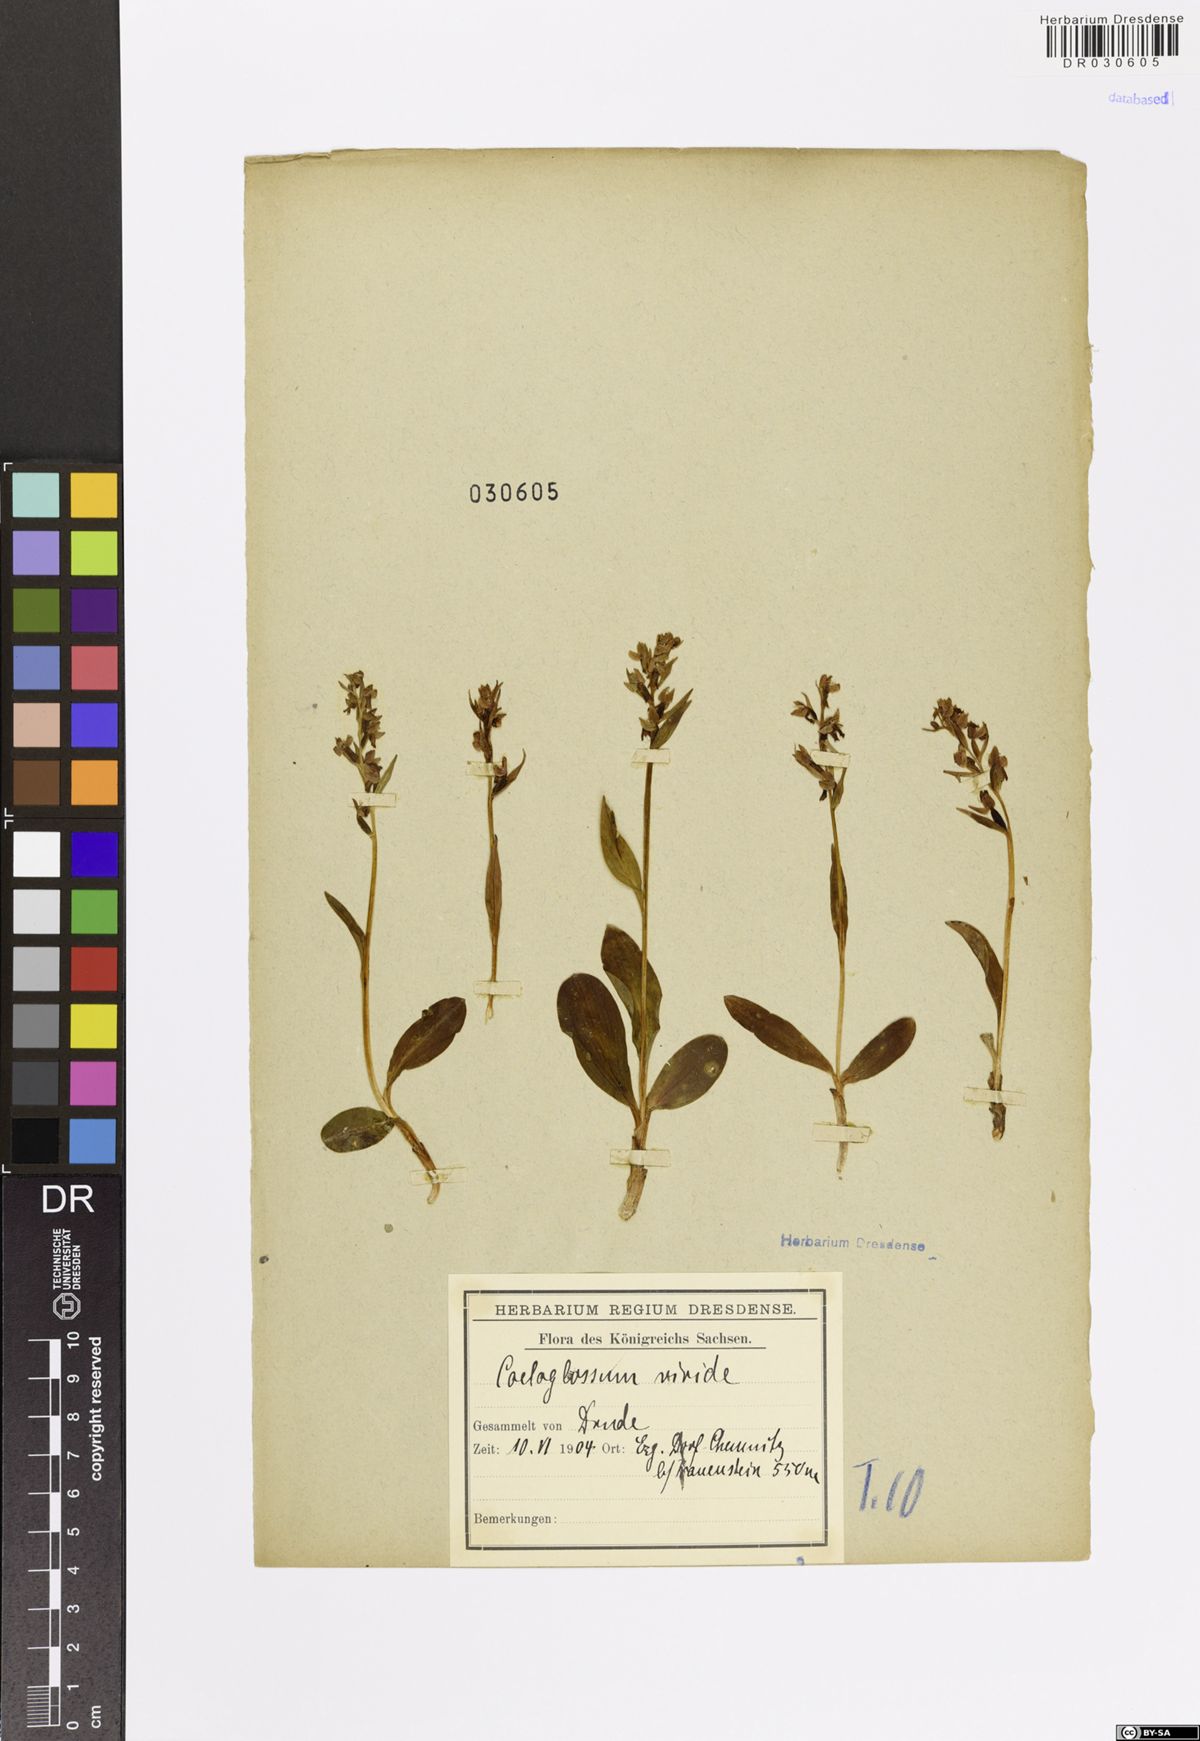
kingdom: Plantae
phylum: Tracheophyta
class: Liliopsida
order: Asparagales
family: Orchidaceae
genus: Dactylorhiza
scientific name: Dactylorhiza viridis
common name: Longbract frog orchid
